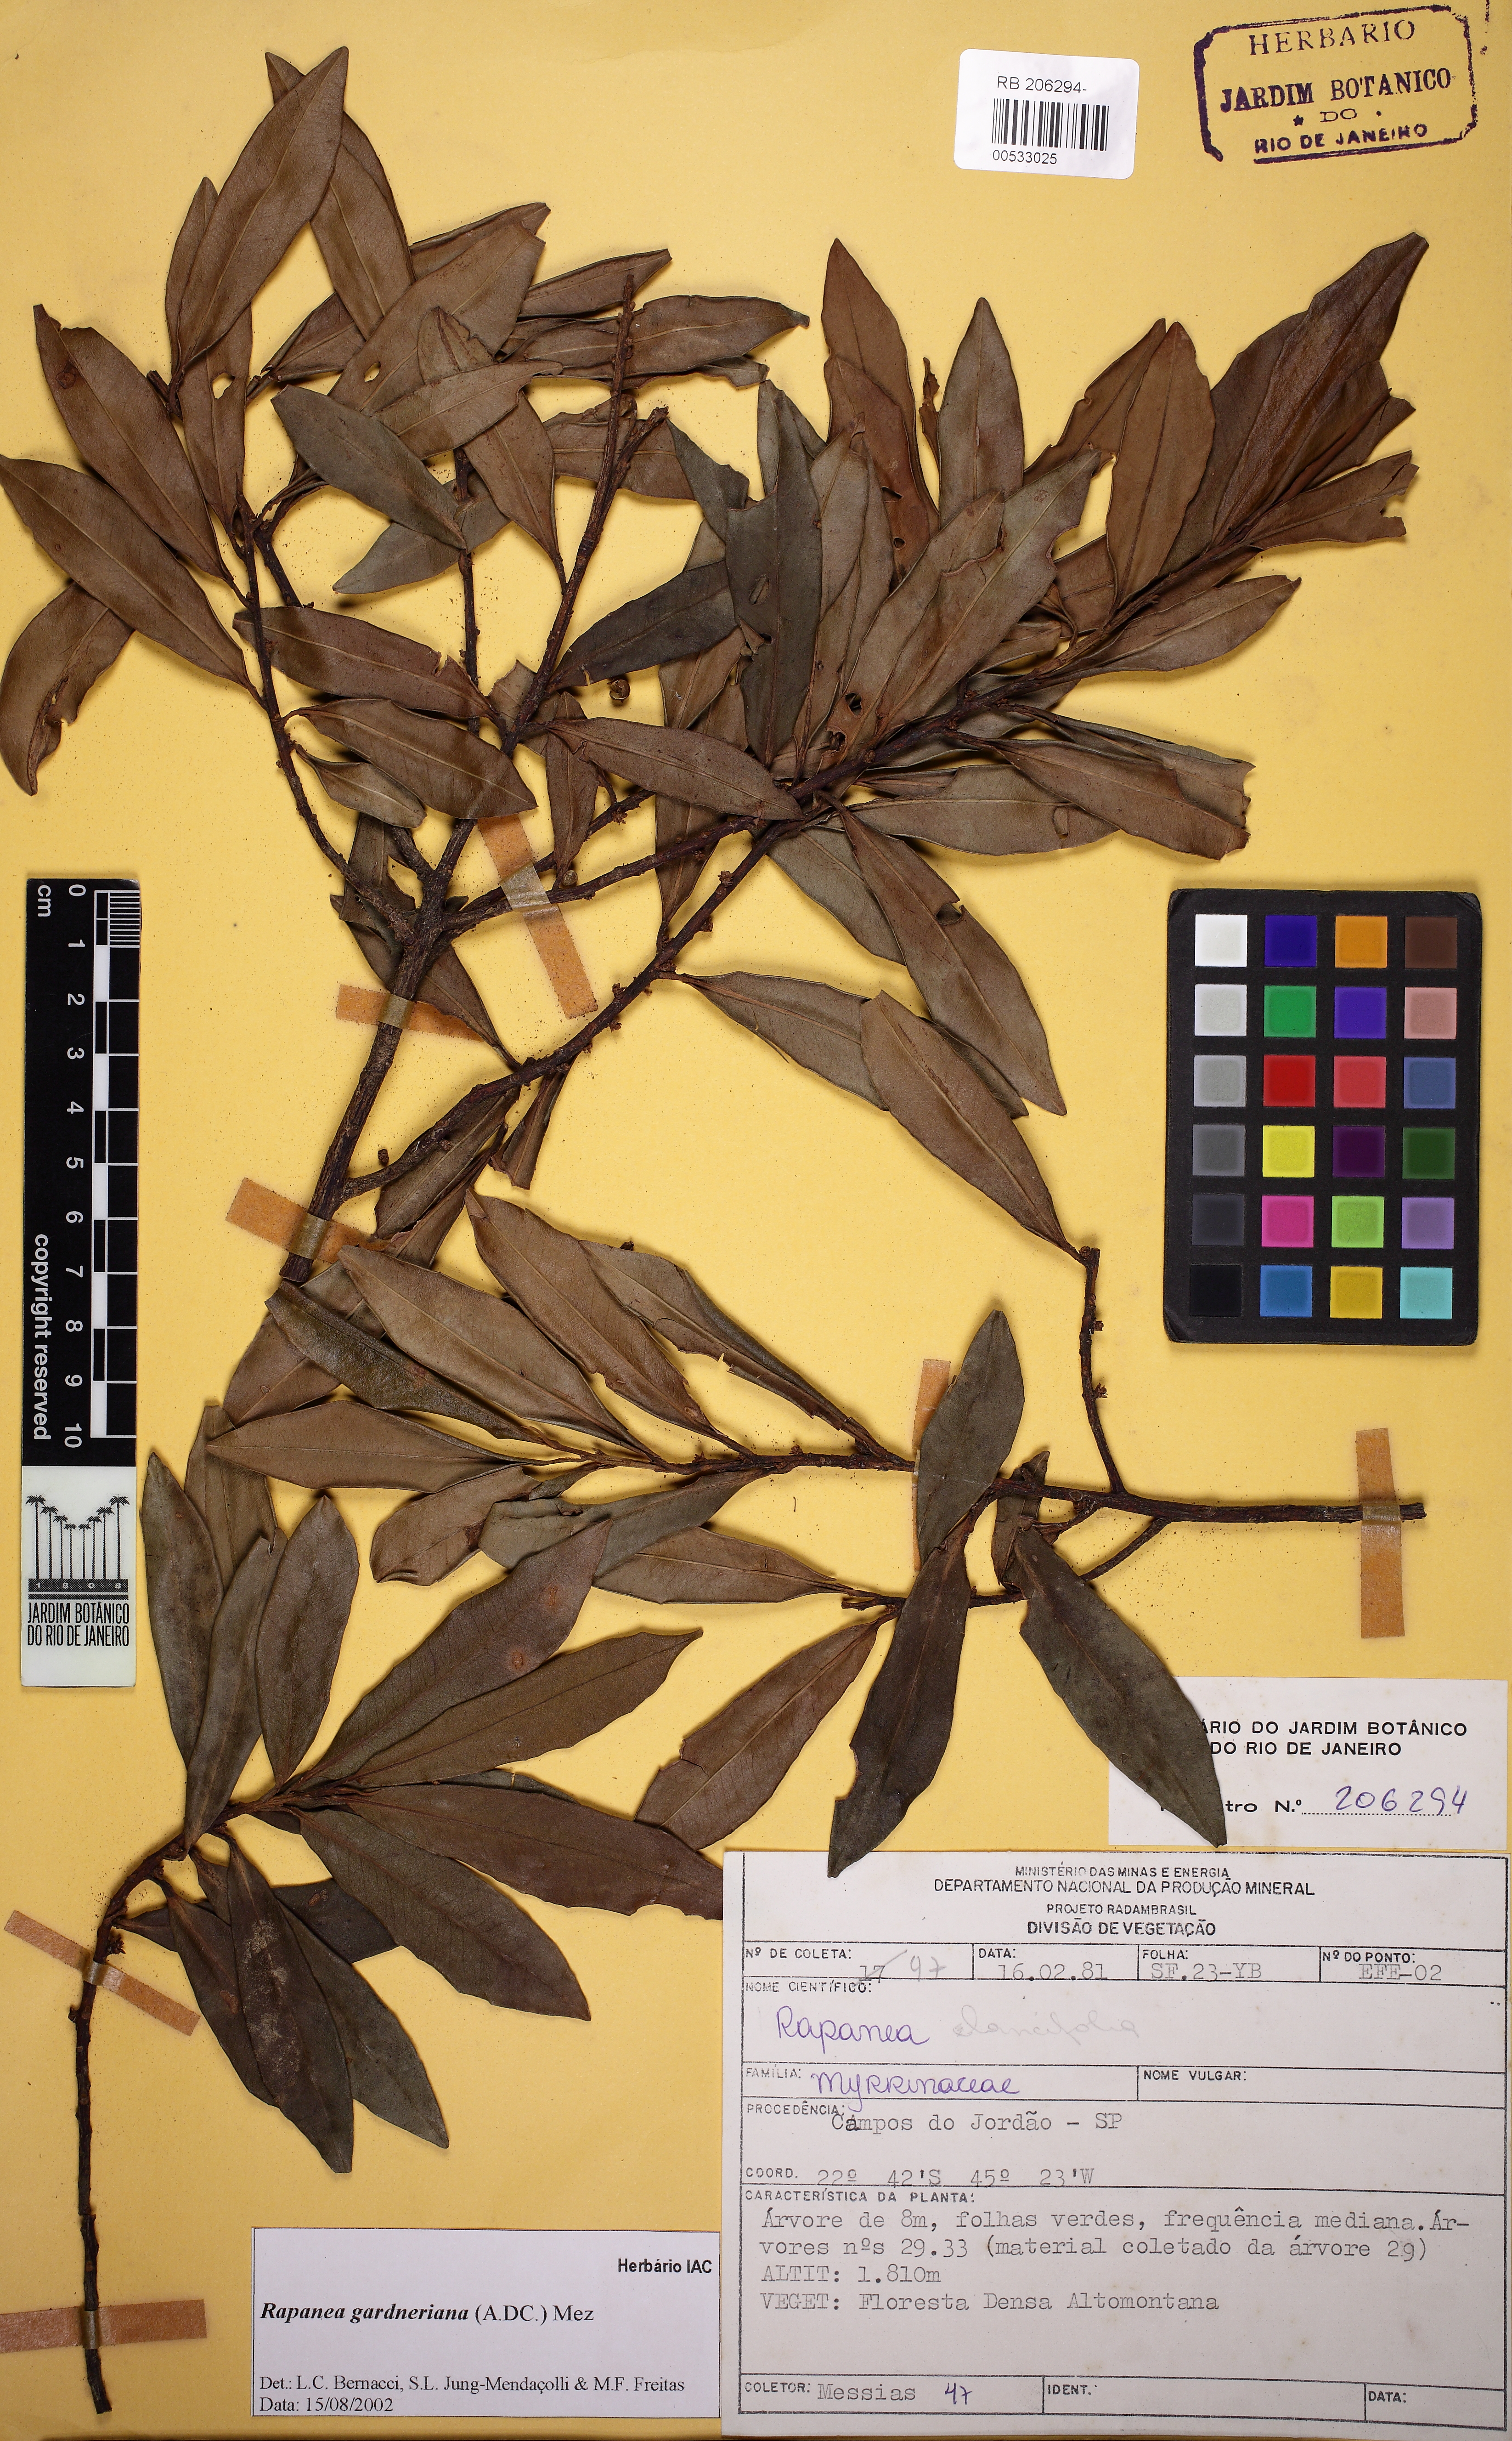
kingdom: Plantae
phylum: Tracheophyta
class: Magnoliopsida
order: Ericales
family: Primulaceae
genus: Myrsine
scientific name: Myrsine gardneriana
